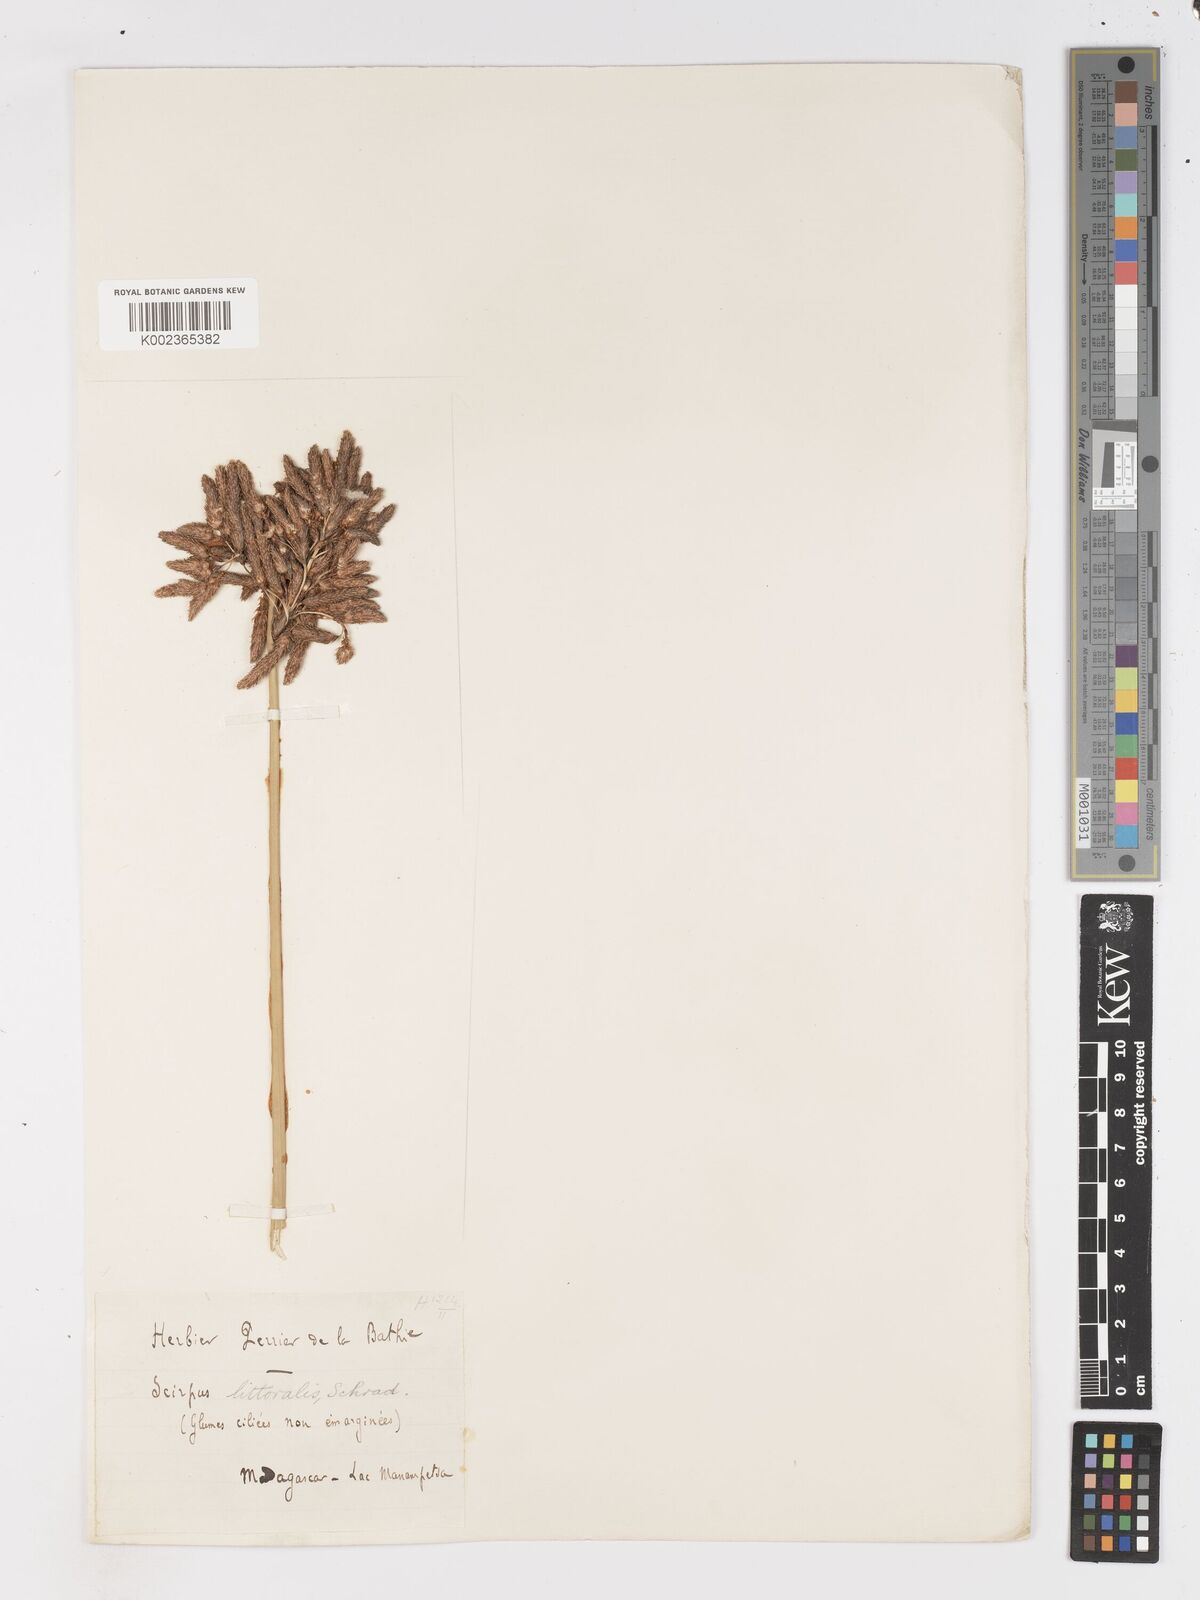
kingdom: Plantae
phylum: Tracheophyta
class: Liliopsida
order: Poales
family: Cyperaceae
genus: Schoenoplectus
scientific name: Schoenoplectus
